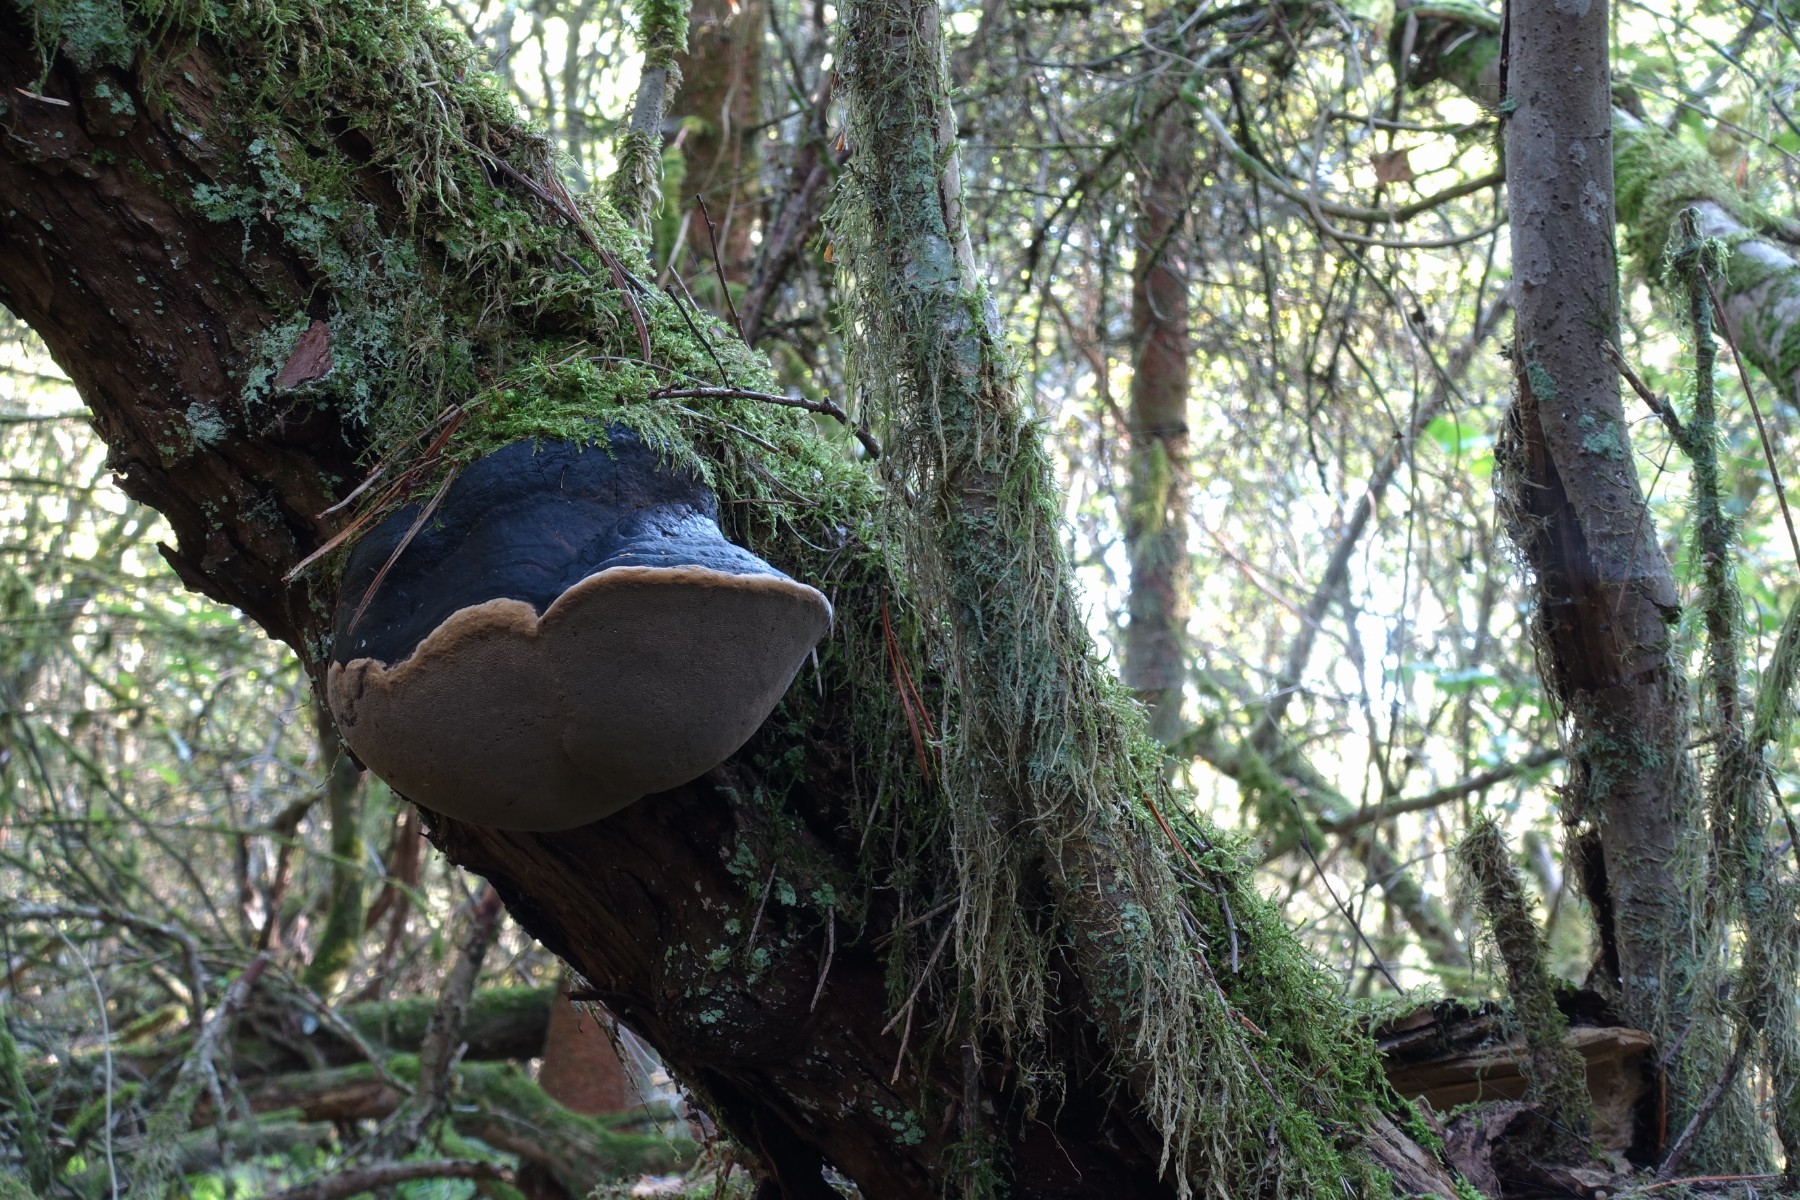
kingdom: Fungi
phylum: Basidiomycota
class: Agaricomycetes
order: Hymenochaetales
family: Hymenochaetaceae
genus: Phellinus
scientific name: Phellinus igniarius
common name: almindelig ildporesvamp
